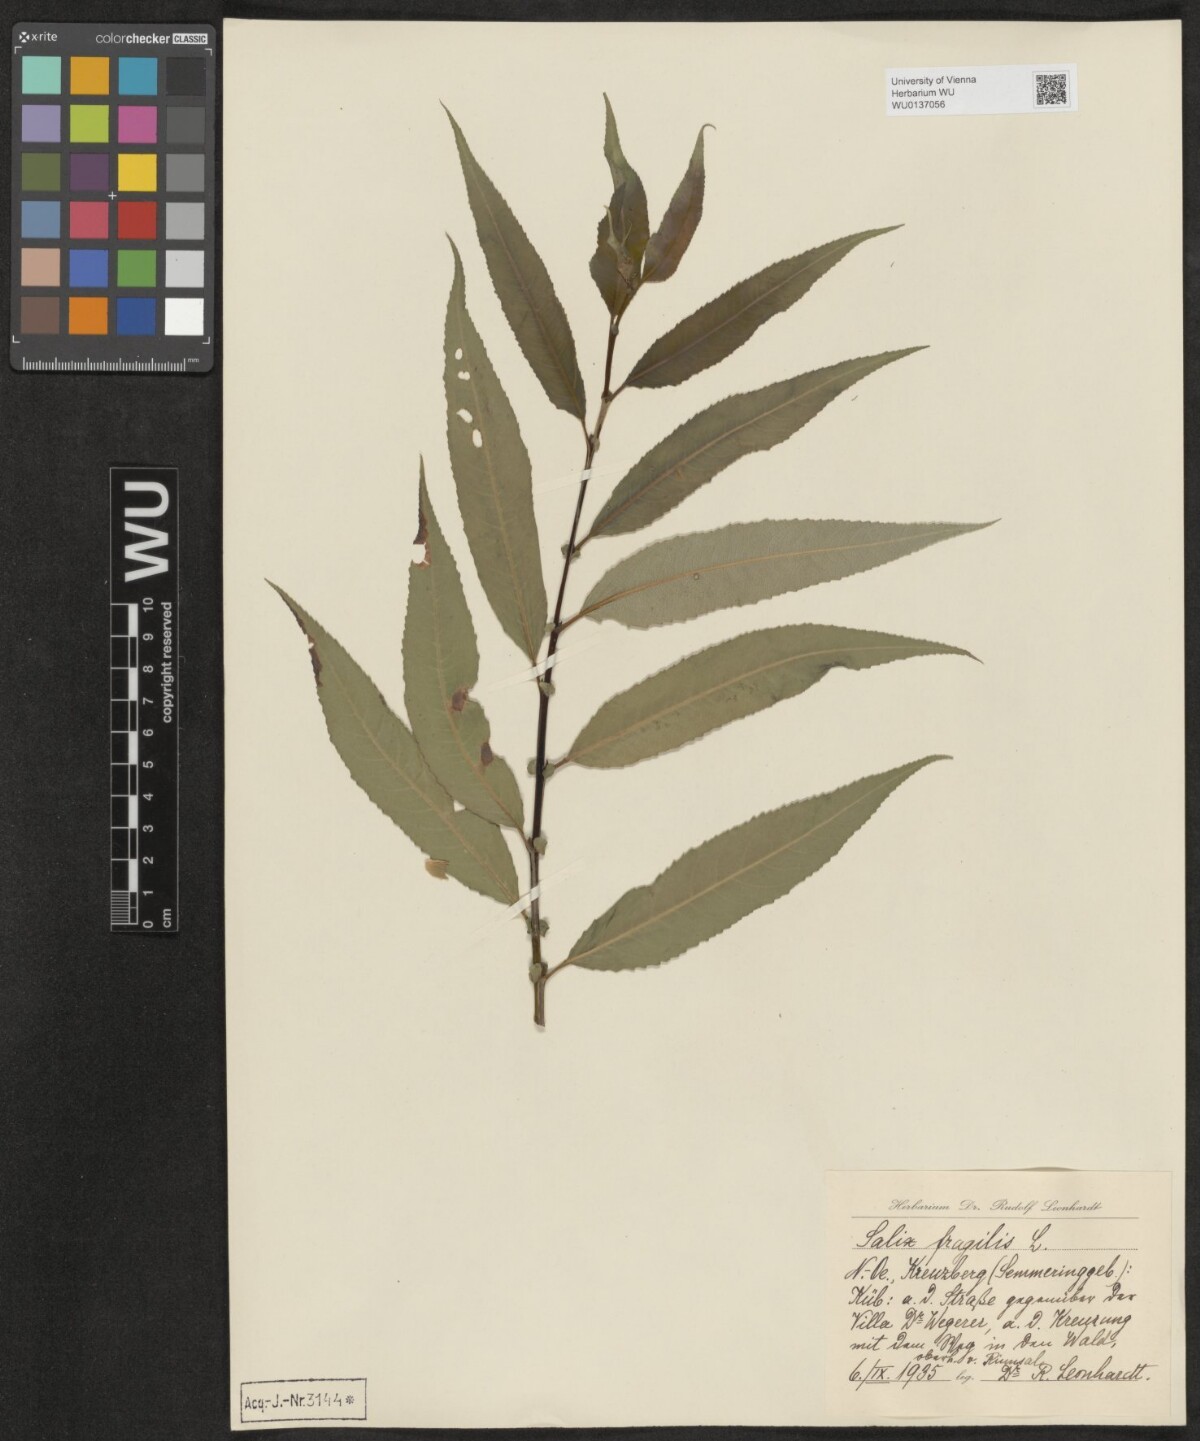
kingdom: Plantae
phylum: Tracheophyta
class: Magnoliopsida
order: Malpighiales
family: Salicaceae
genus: Salix
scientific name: Salix fragilis
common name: Crack willow
